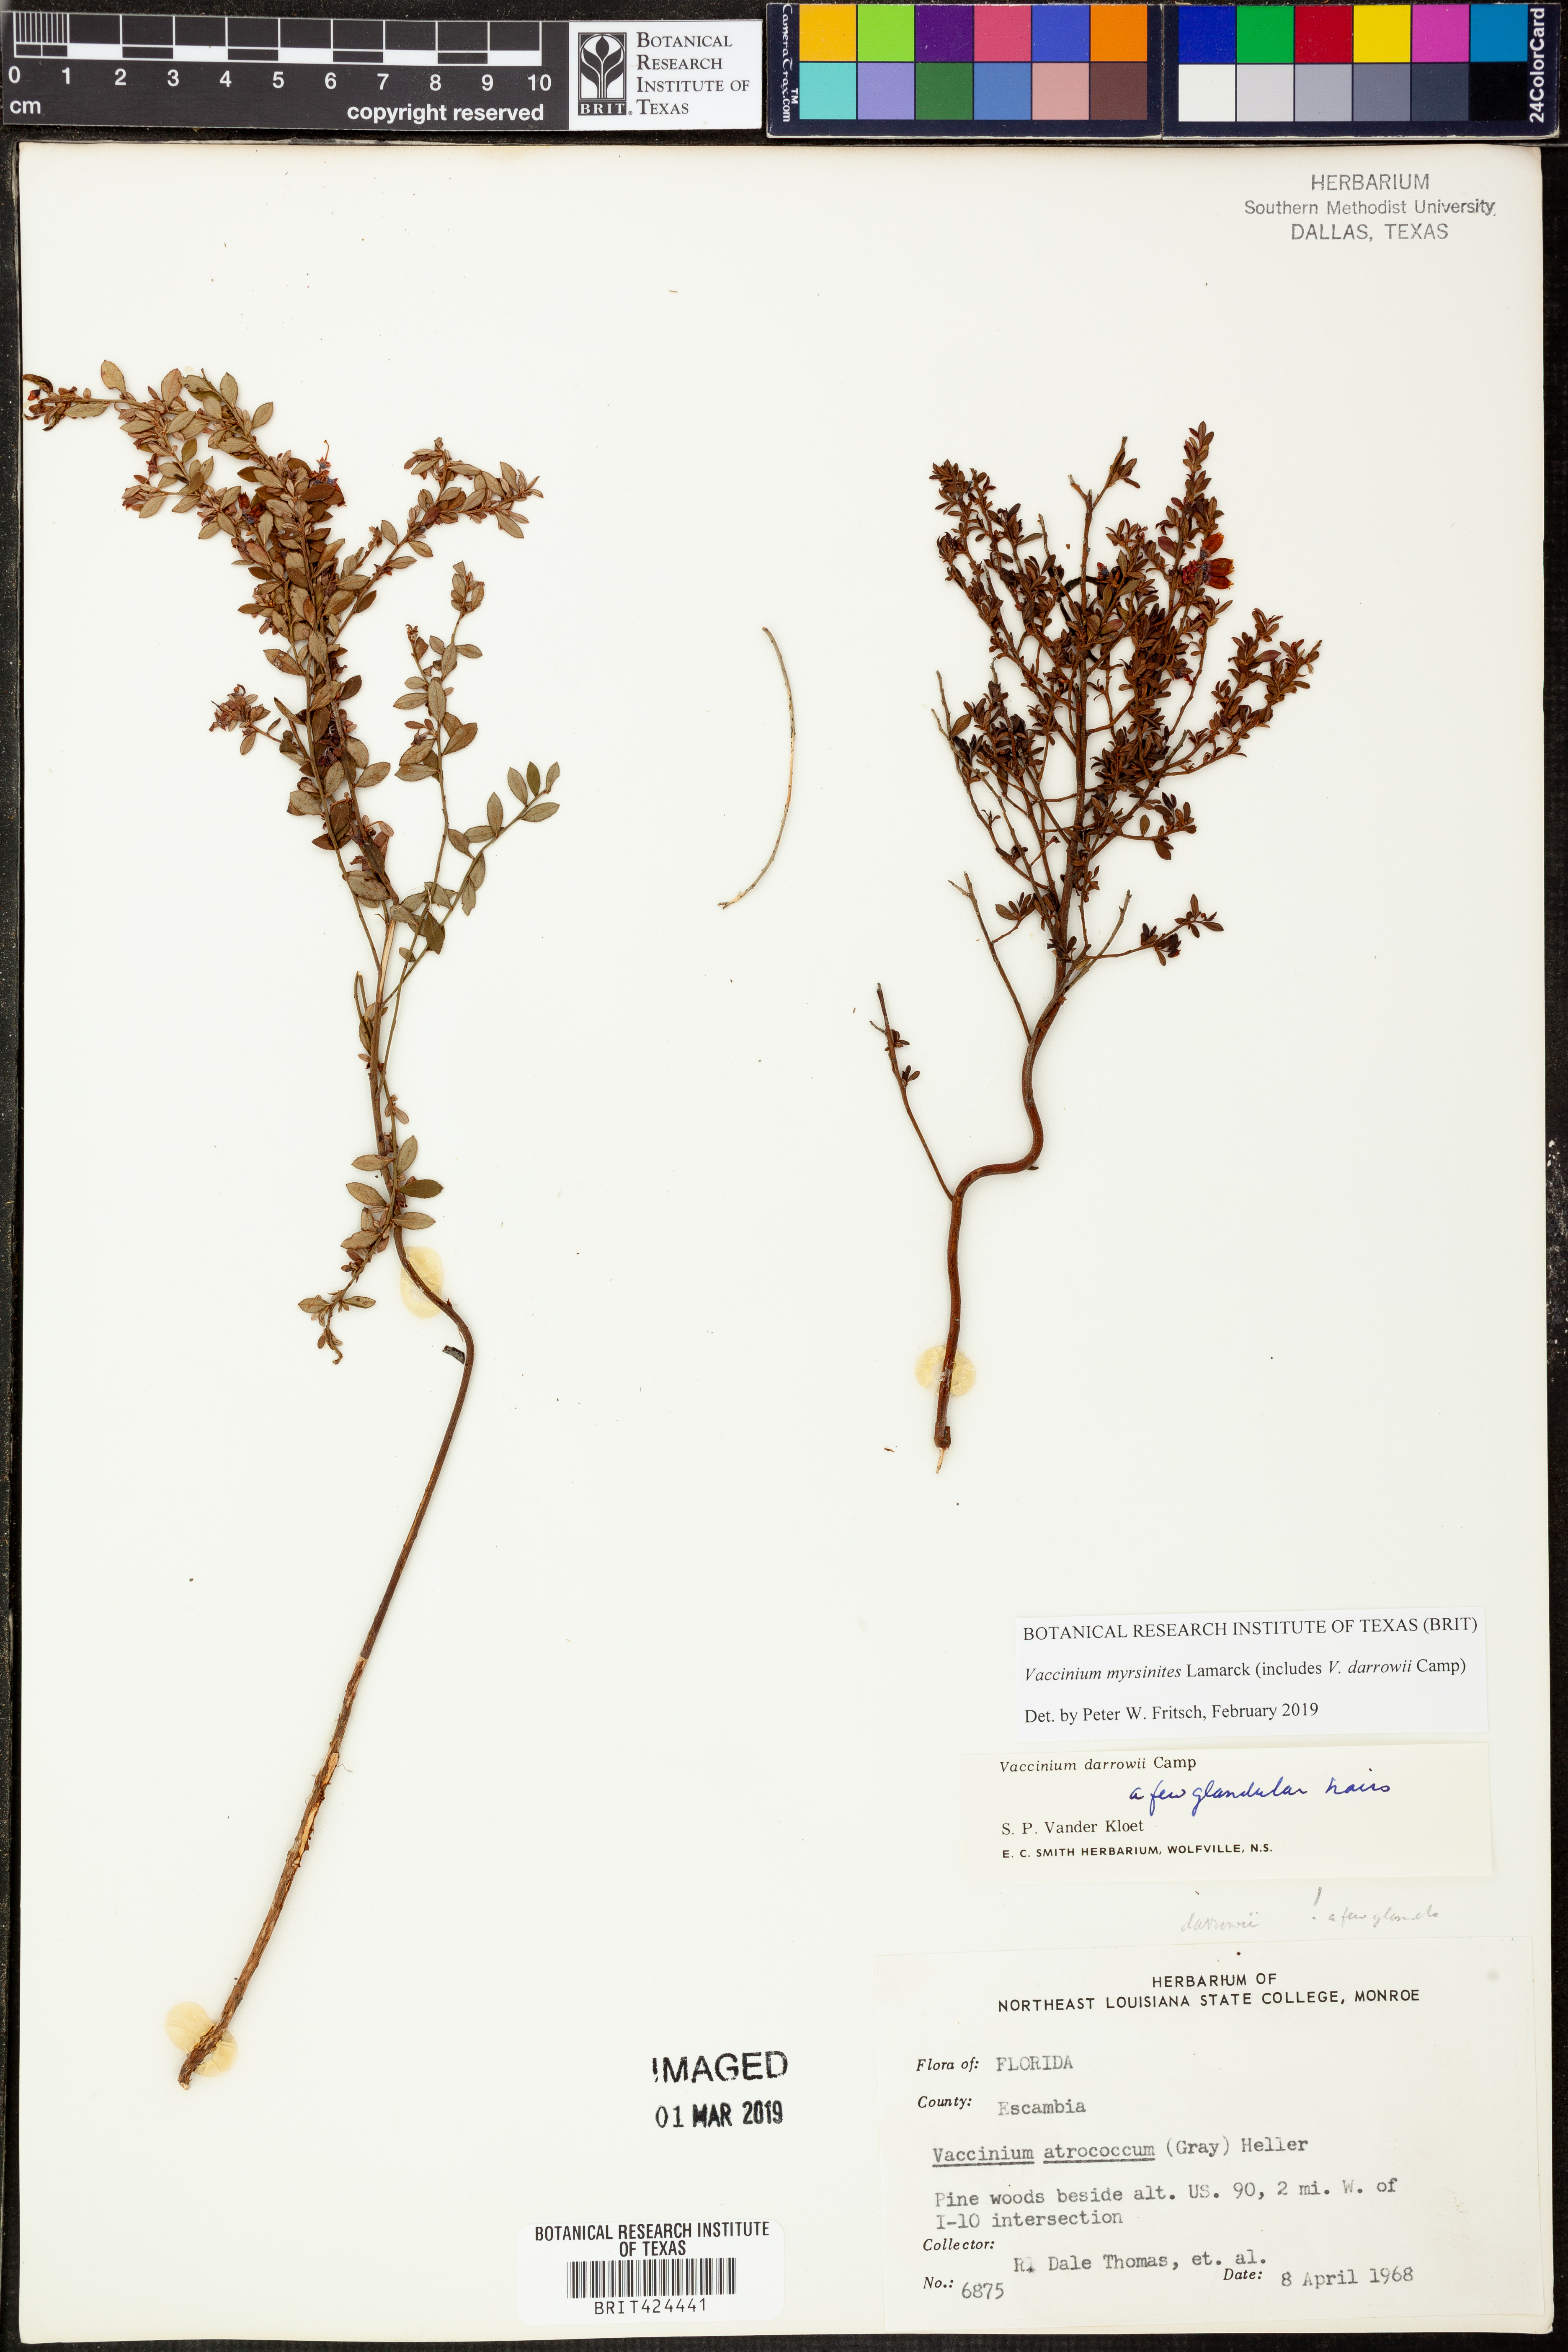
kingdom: Plantae
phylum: Tracheophyta
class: Magnoliopsida
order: Ericales
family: Ericaceae
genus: Vaccinium
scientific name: Vaccinium myrsinites
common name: Evergreen blueberry
